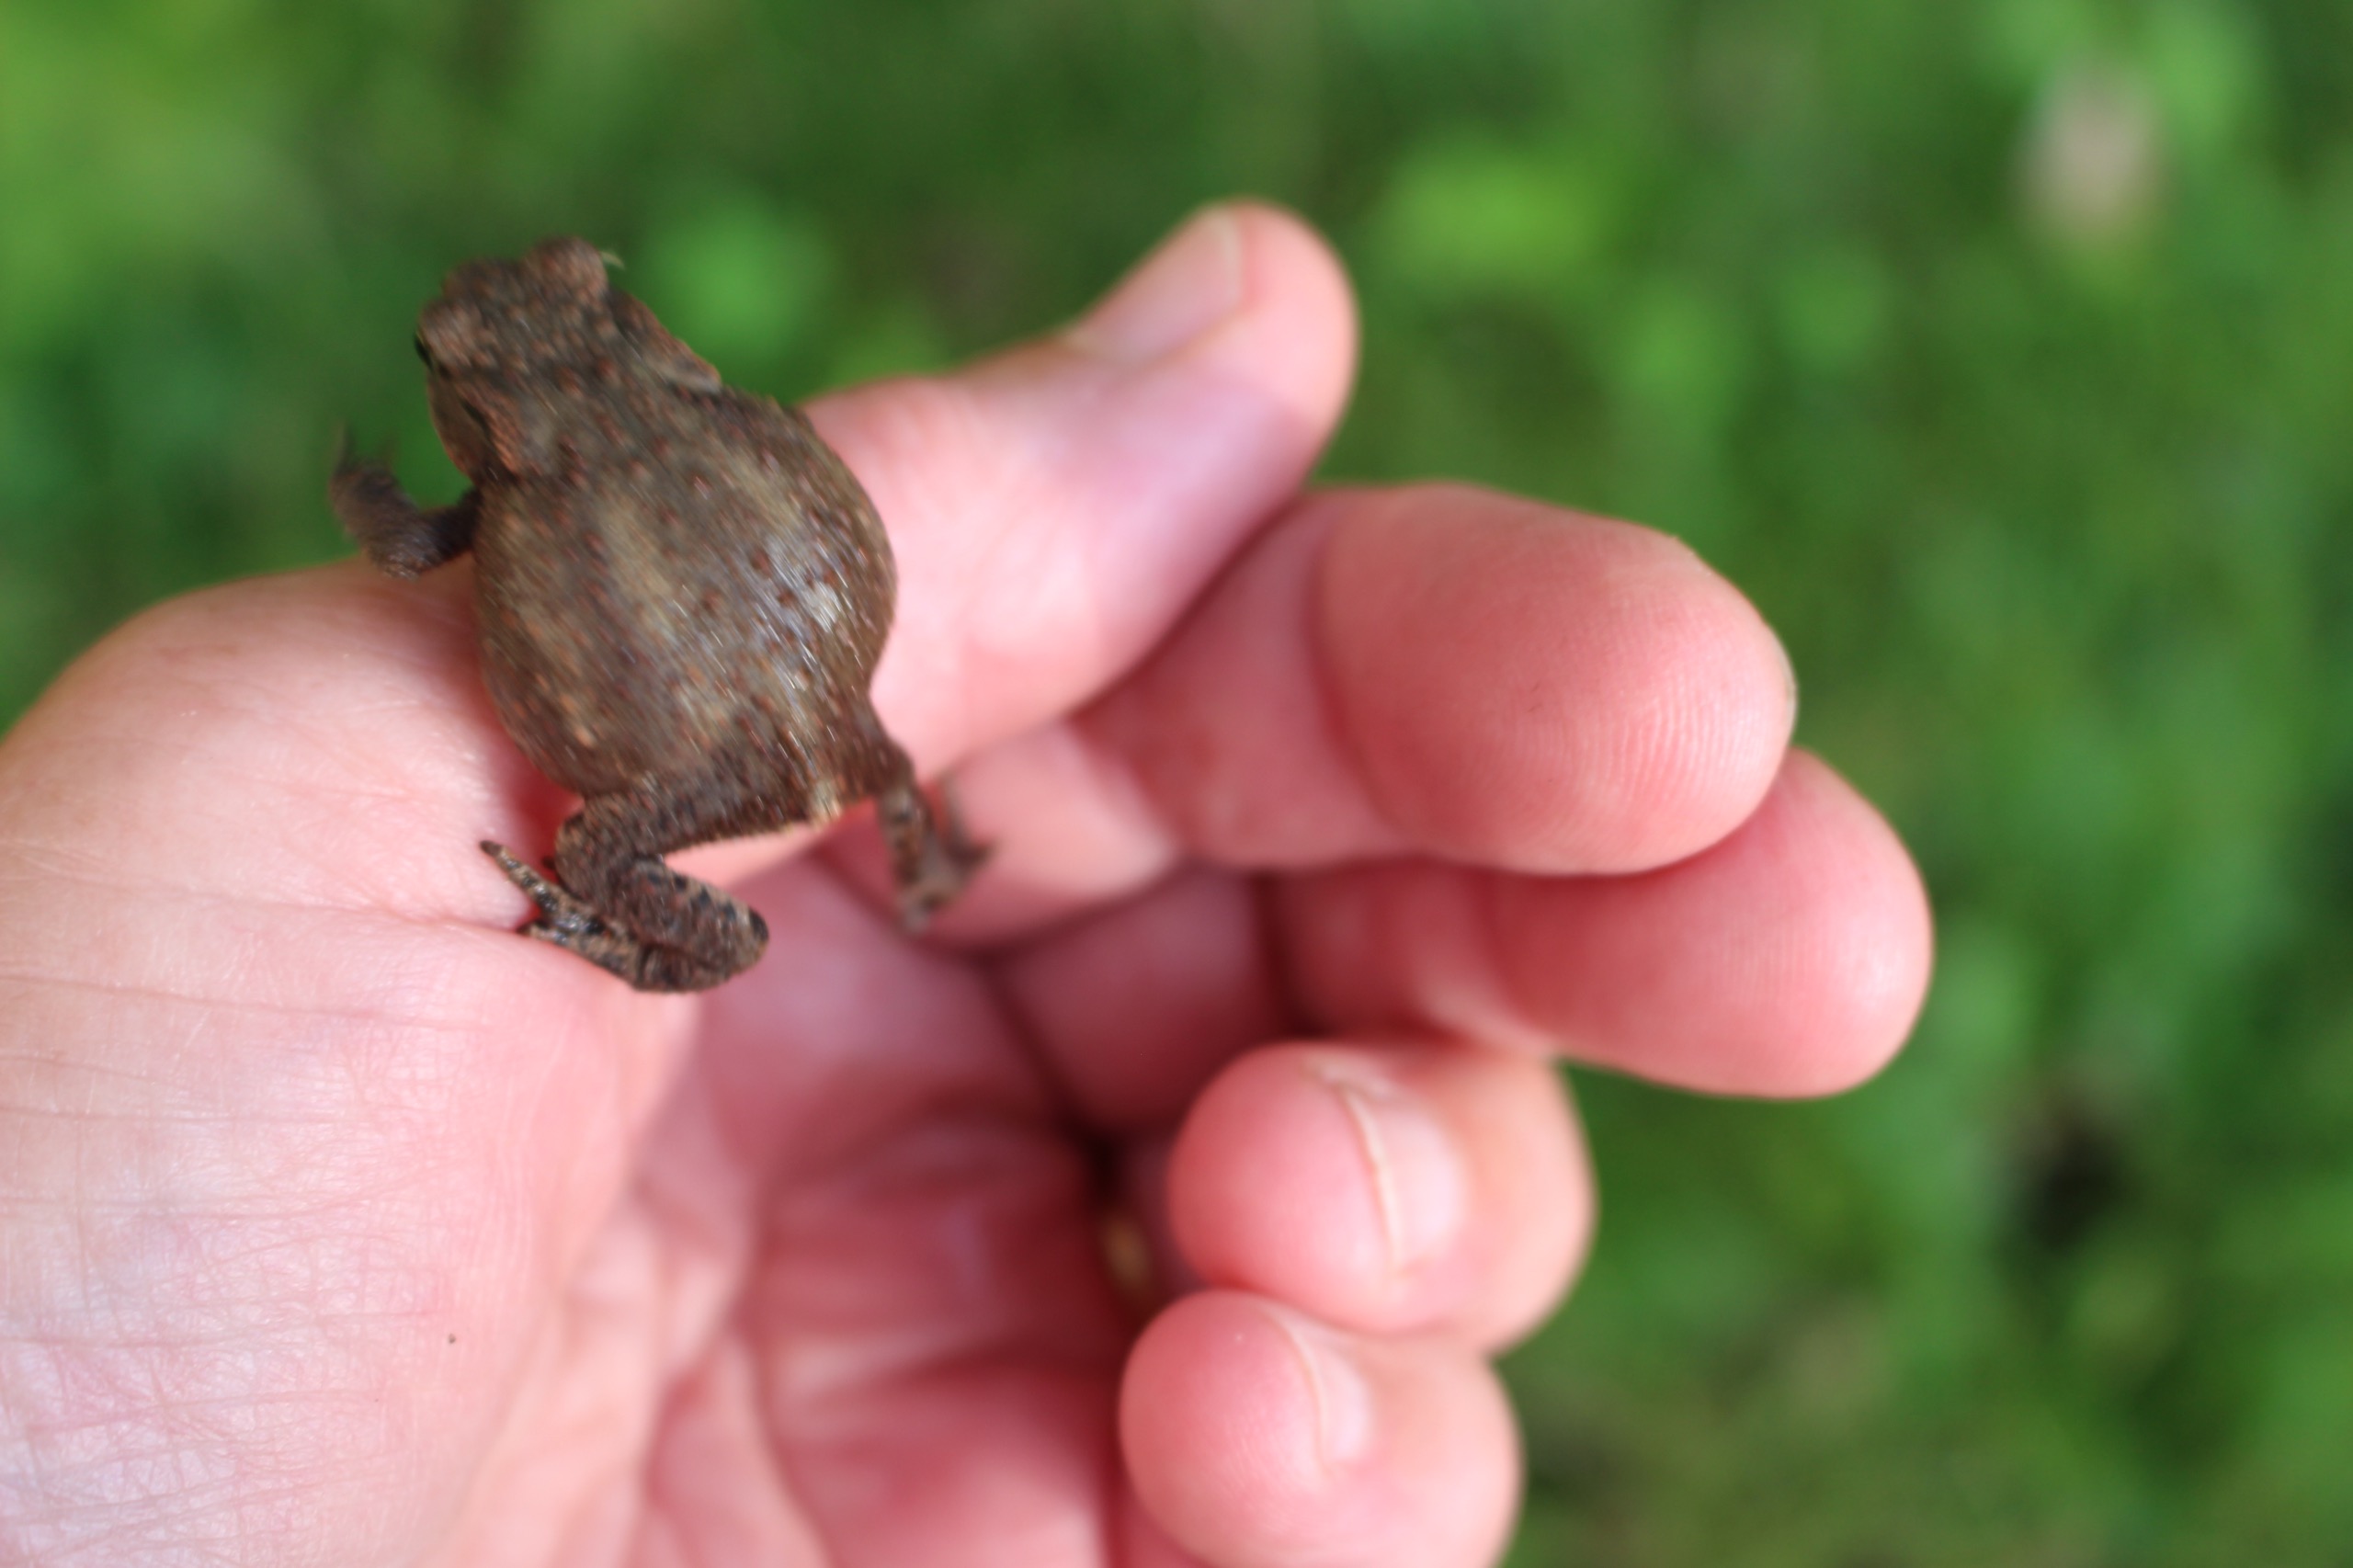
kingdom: Animalia
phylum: Chordata
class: Amphibia
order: Anura
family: Bufonidae
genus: Bufo
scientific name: Bufo bufo
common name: Skrubtudse
